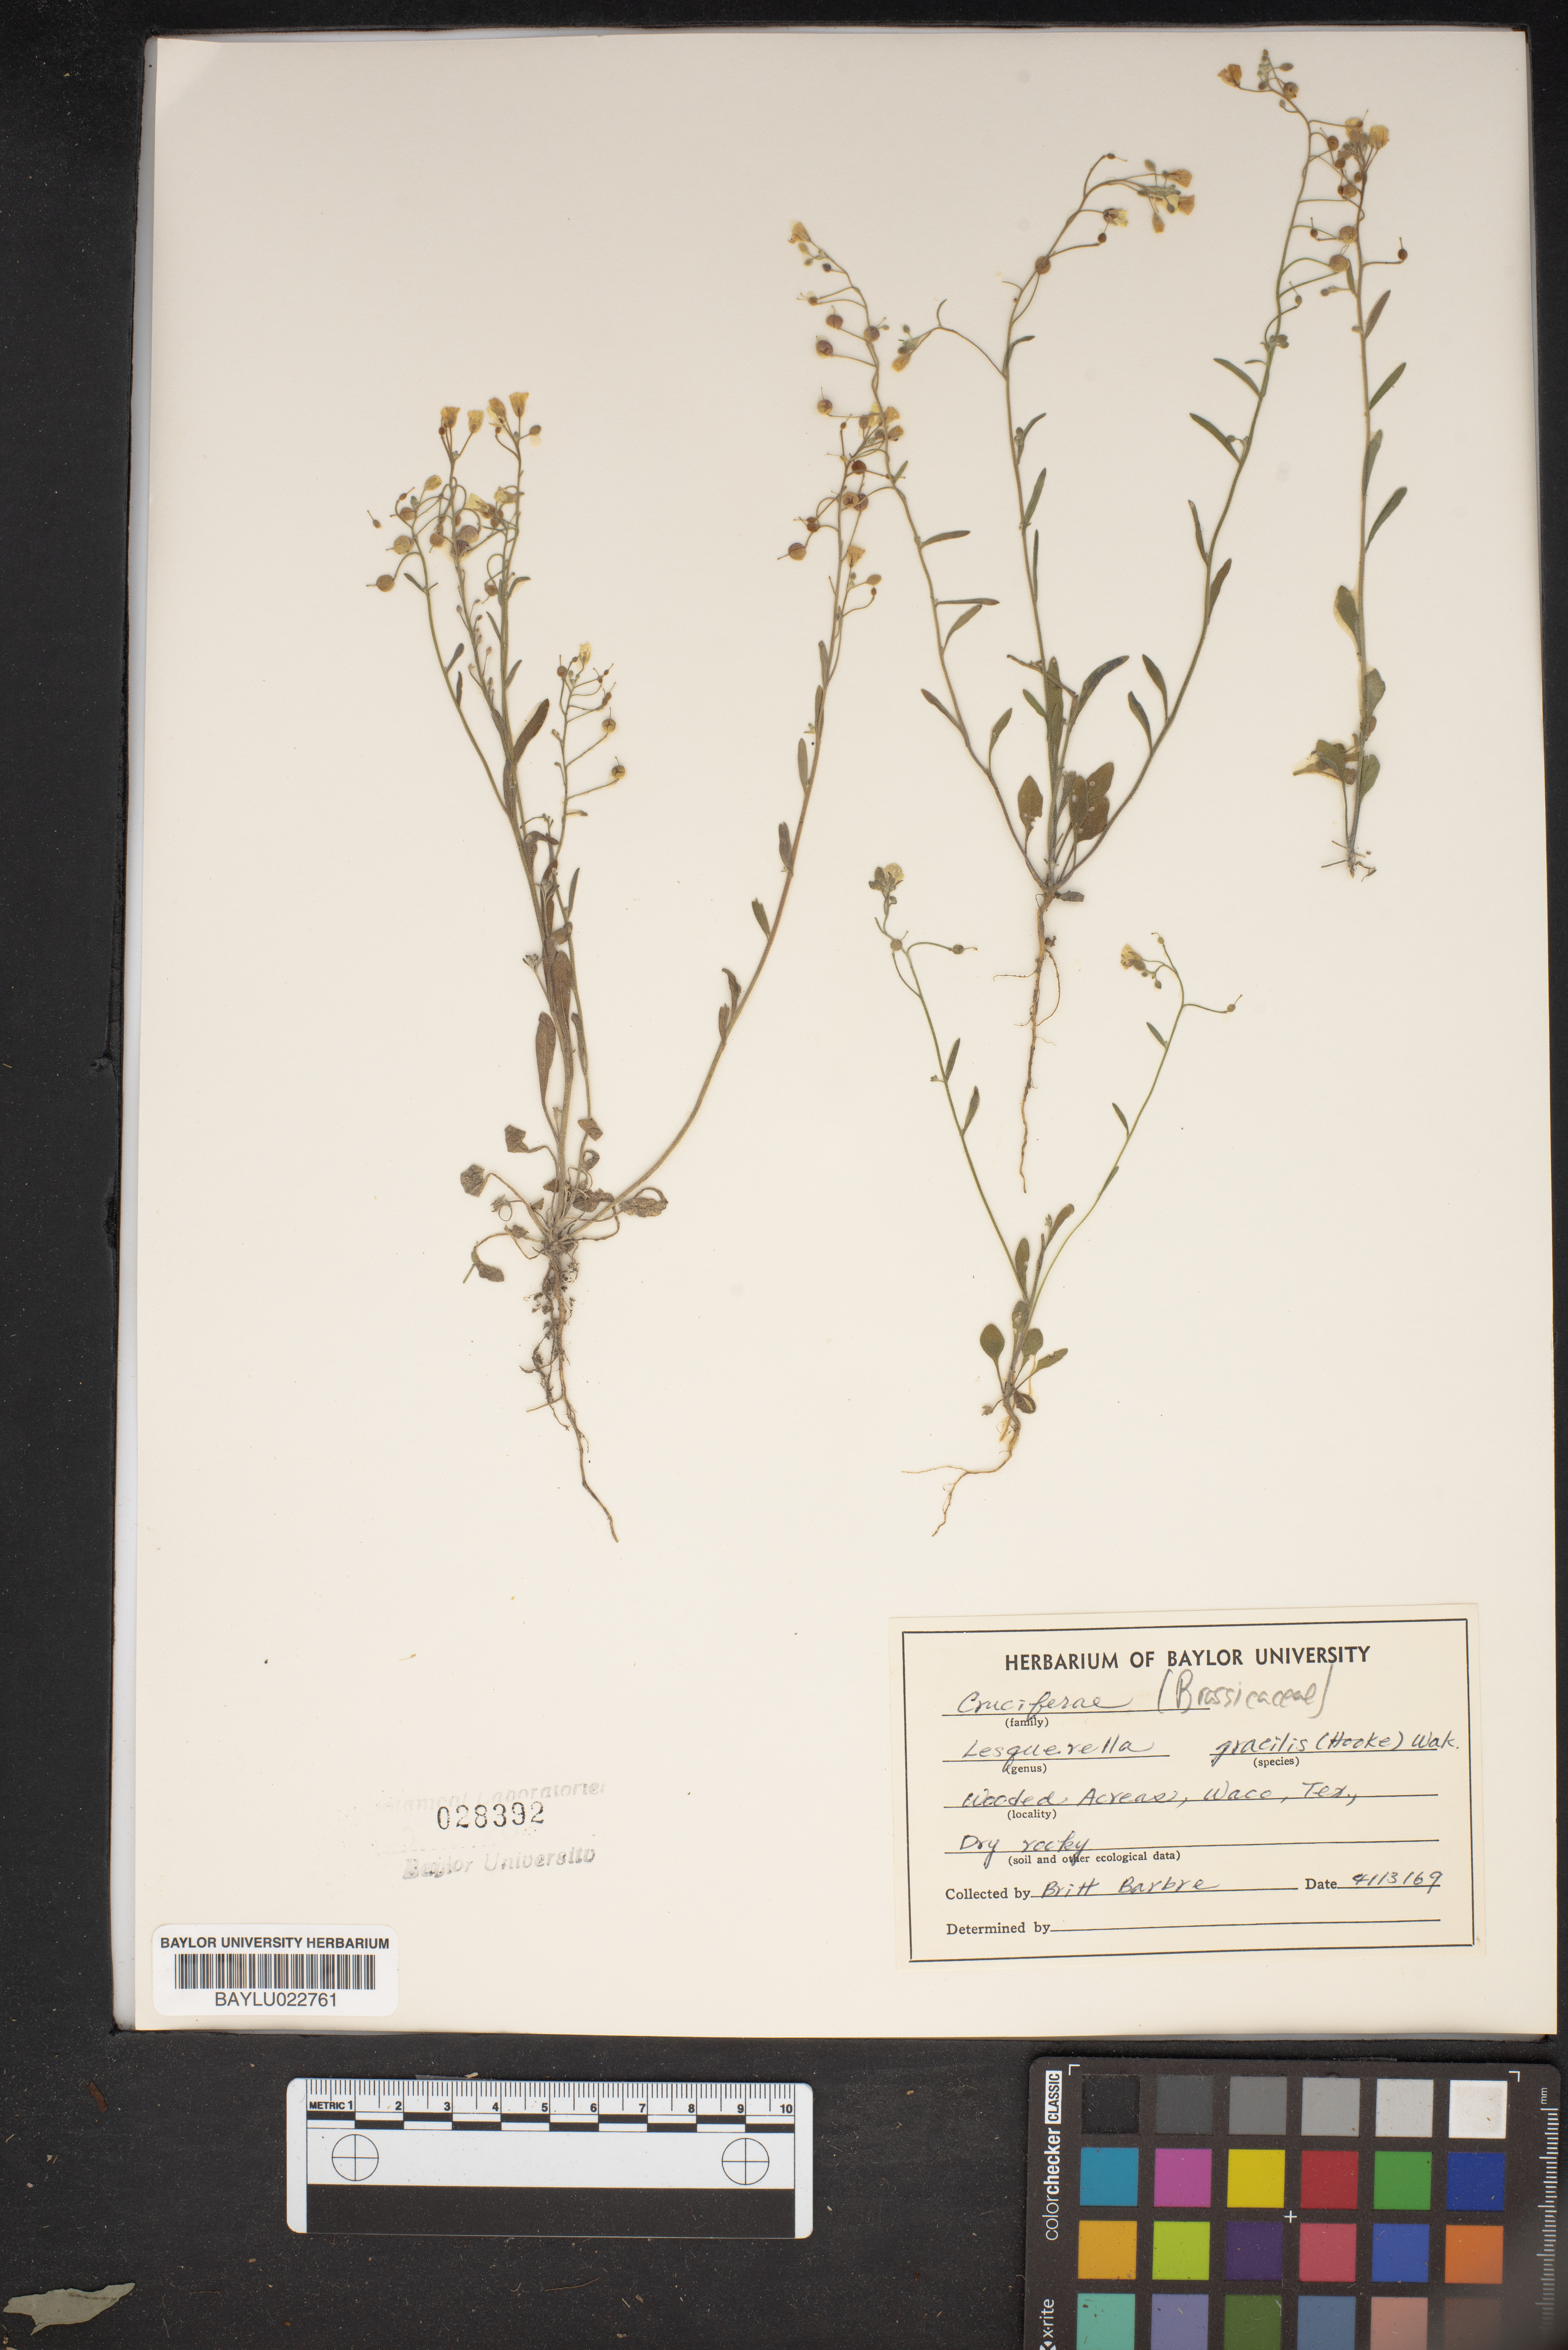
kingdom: Plantae
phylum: Tracheophyta
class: Magnoliopsida
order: Brassicales
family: Brassicaceae
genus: Physaria
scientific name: Physaria gracilis
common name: Spreading bladderpod
